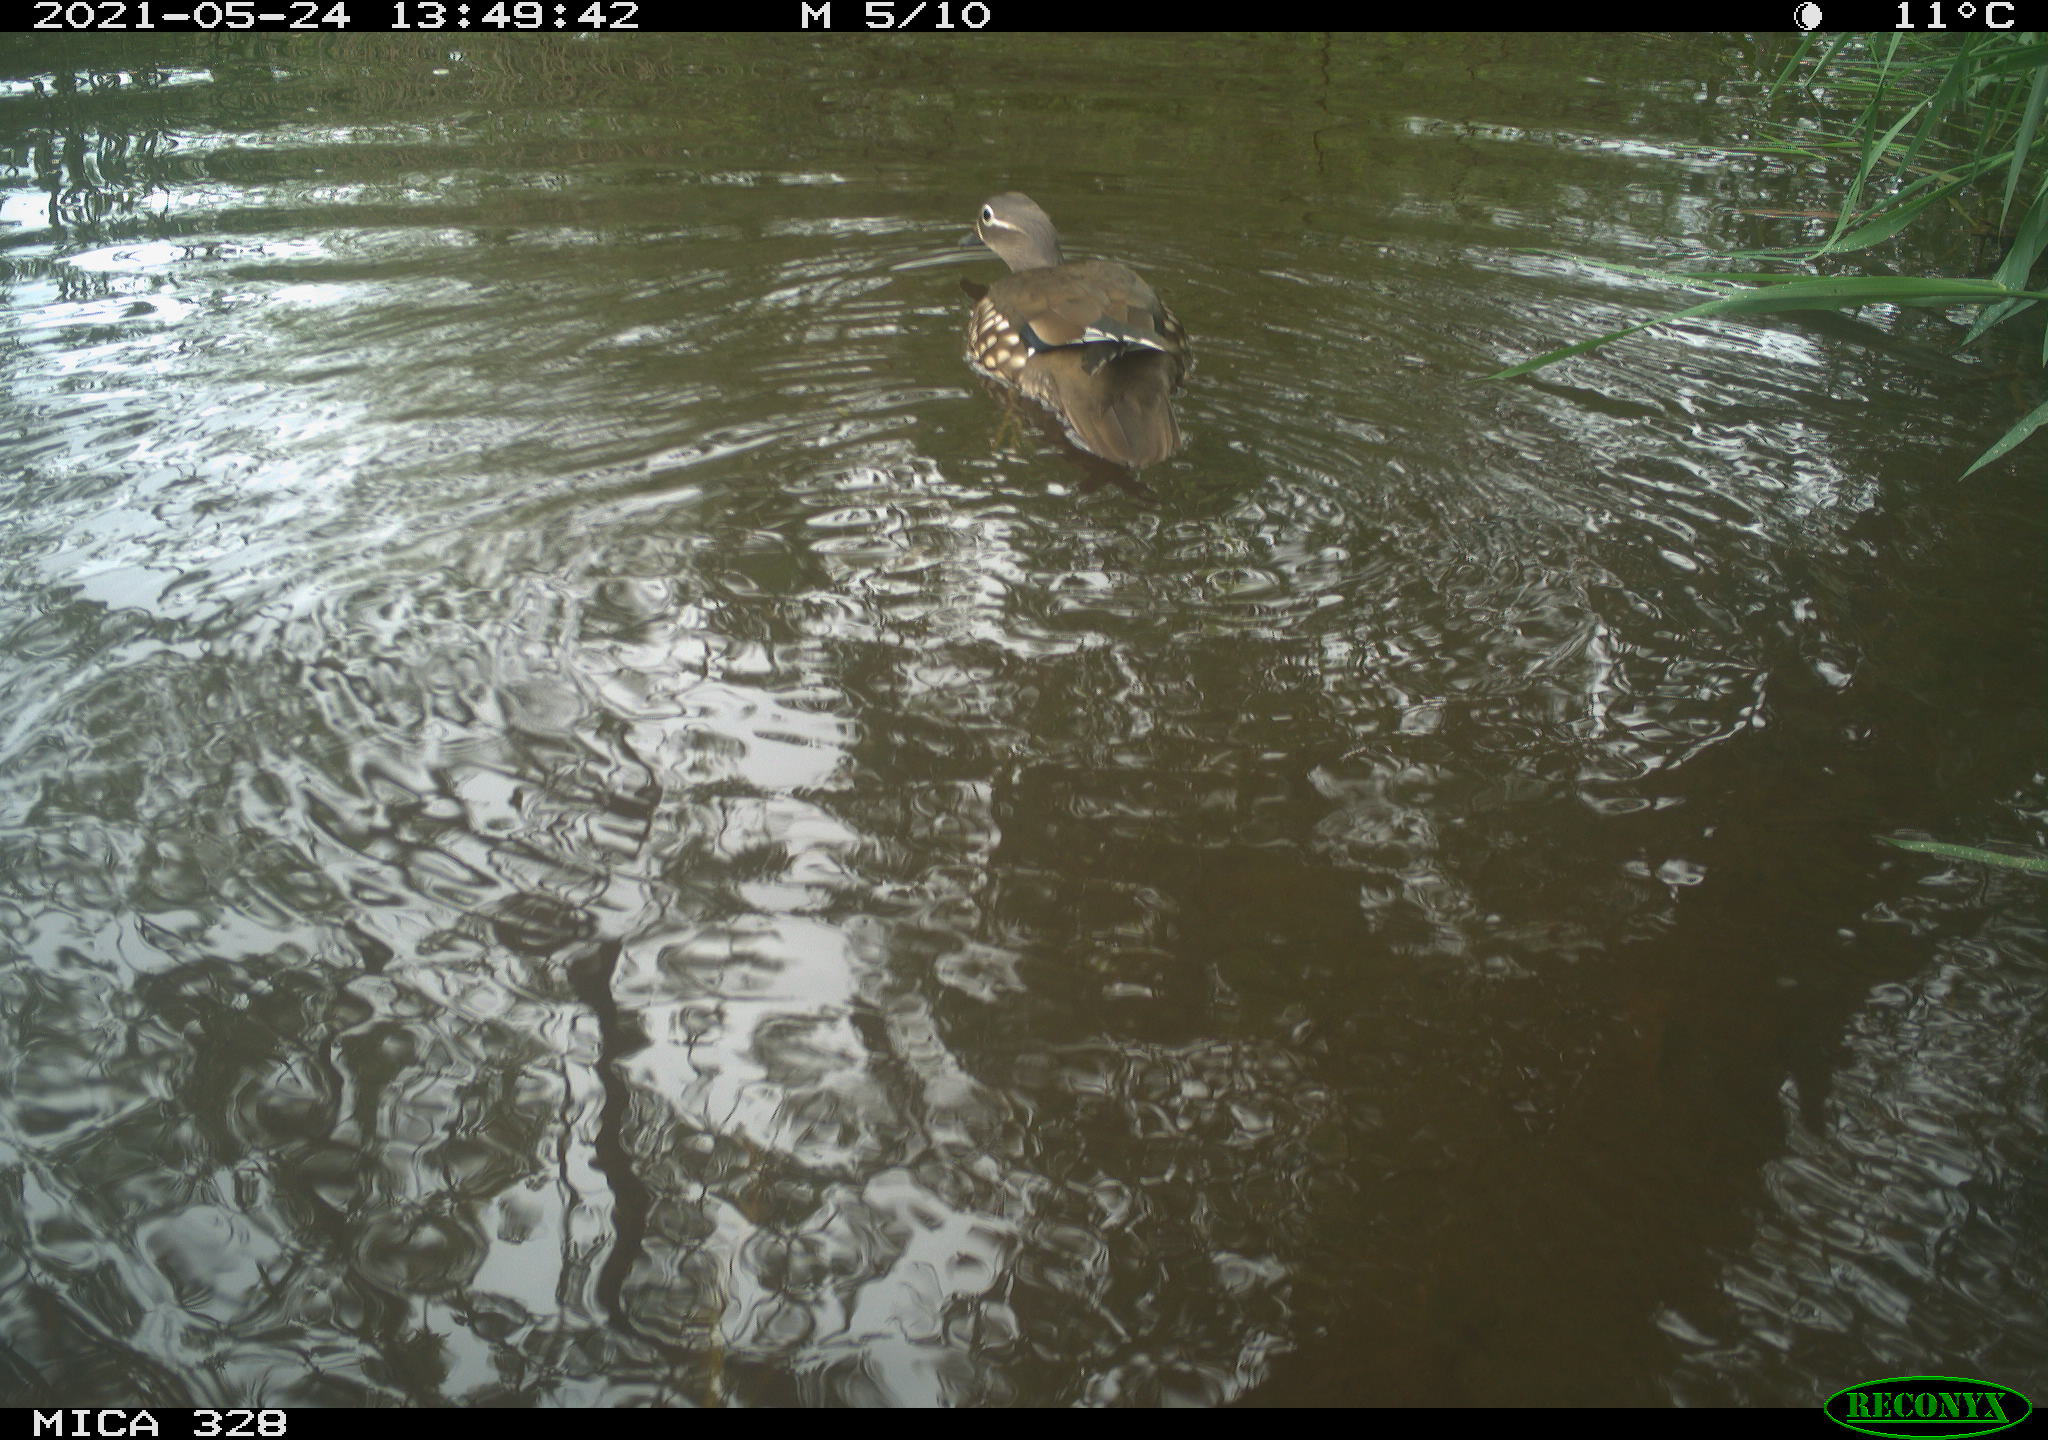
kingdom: Animalia
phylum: Chordata
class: Aves
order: Anseriformes
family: Anatidae
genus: Aix
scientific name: Aix galericulata
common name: Mandarin duck
